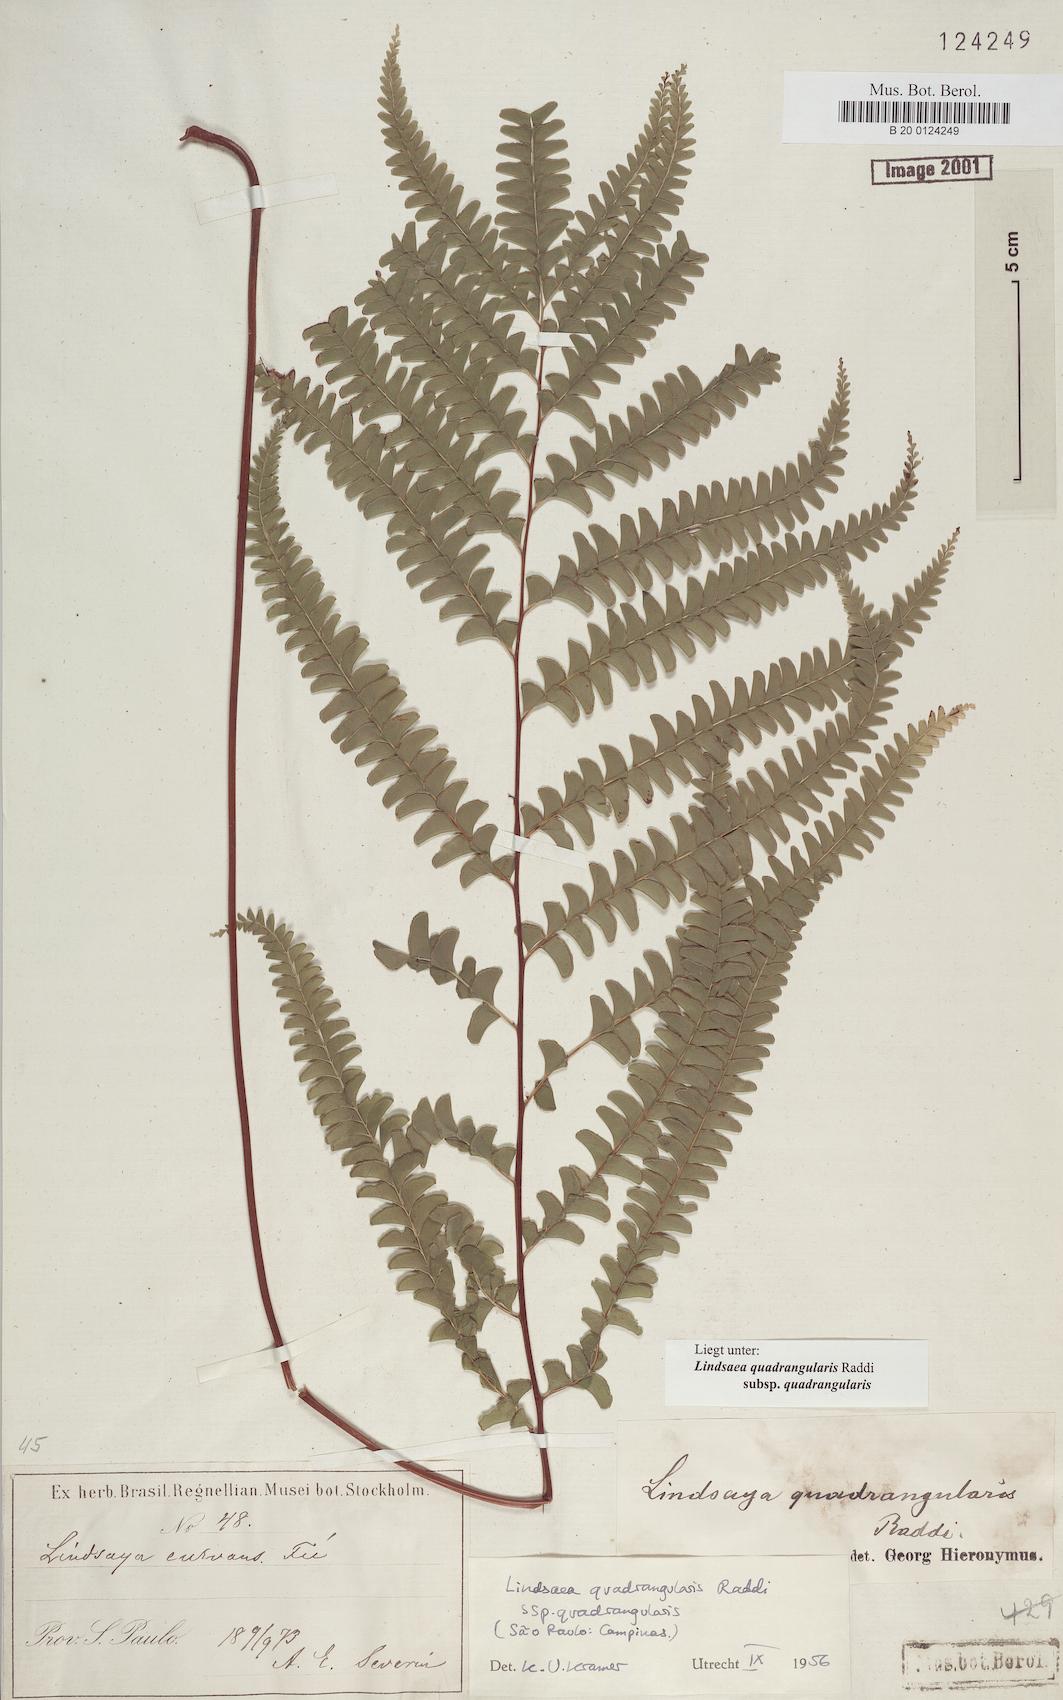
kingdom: Plantae
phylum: Tracheophyta
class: Polypodiopsida
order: Polypodiales
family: Lindsaeaceae
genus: Lindsaea
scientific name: Lindsaea quadrangularis
